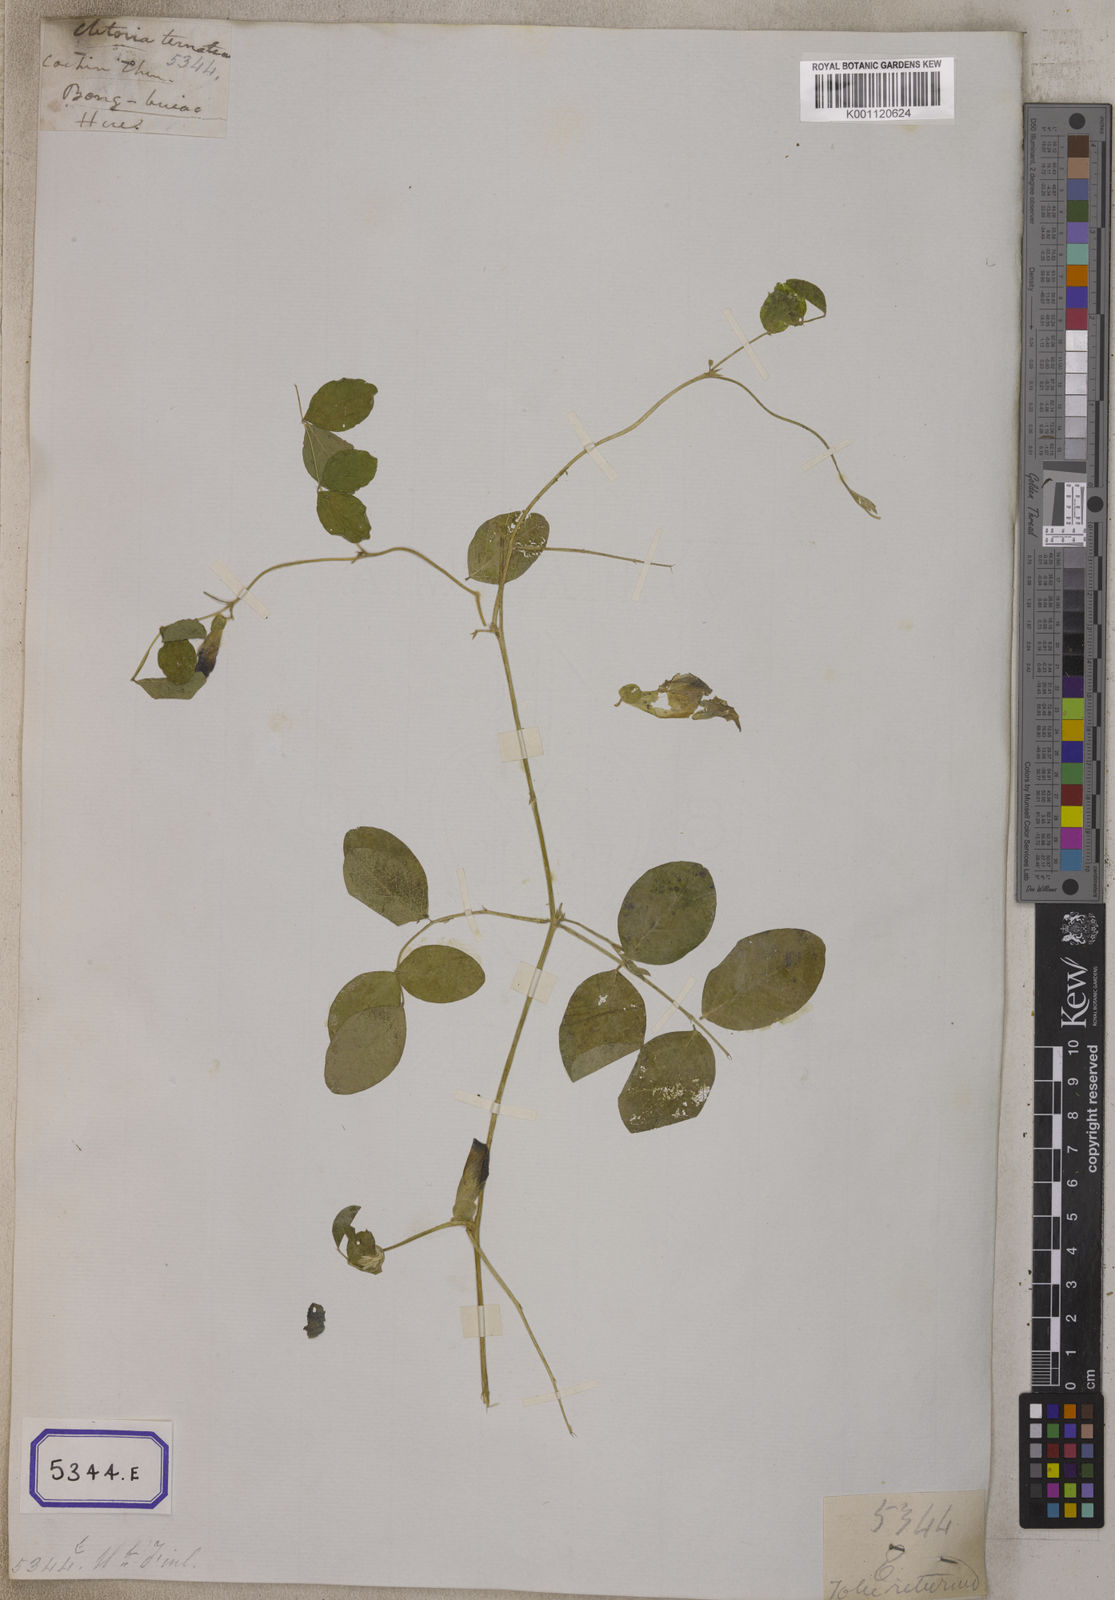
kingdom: Plantae
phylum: Tracheophyta
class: Magnoliopsida
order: Fabales
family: Fabaceae
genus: Clitoria
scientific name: Clitoria ternatea
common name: Asian pigeonwings
